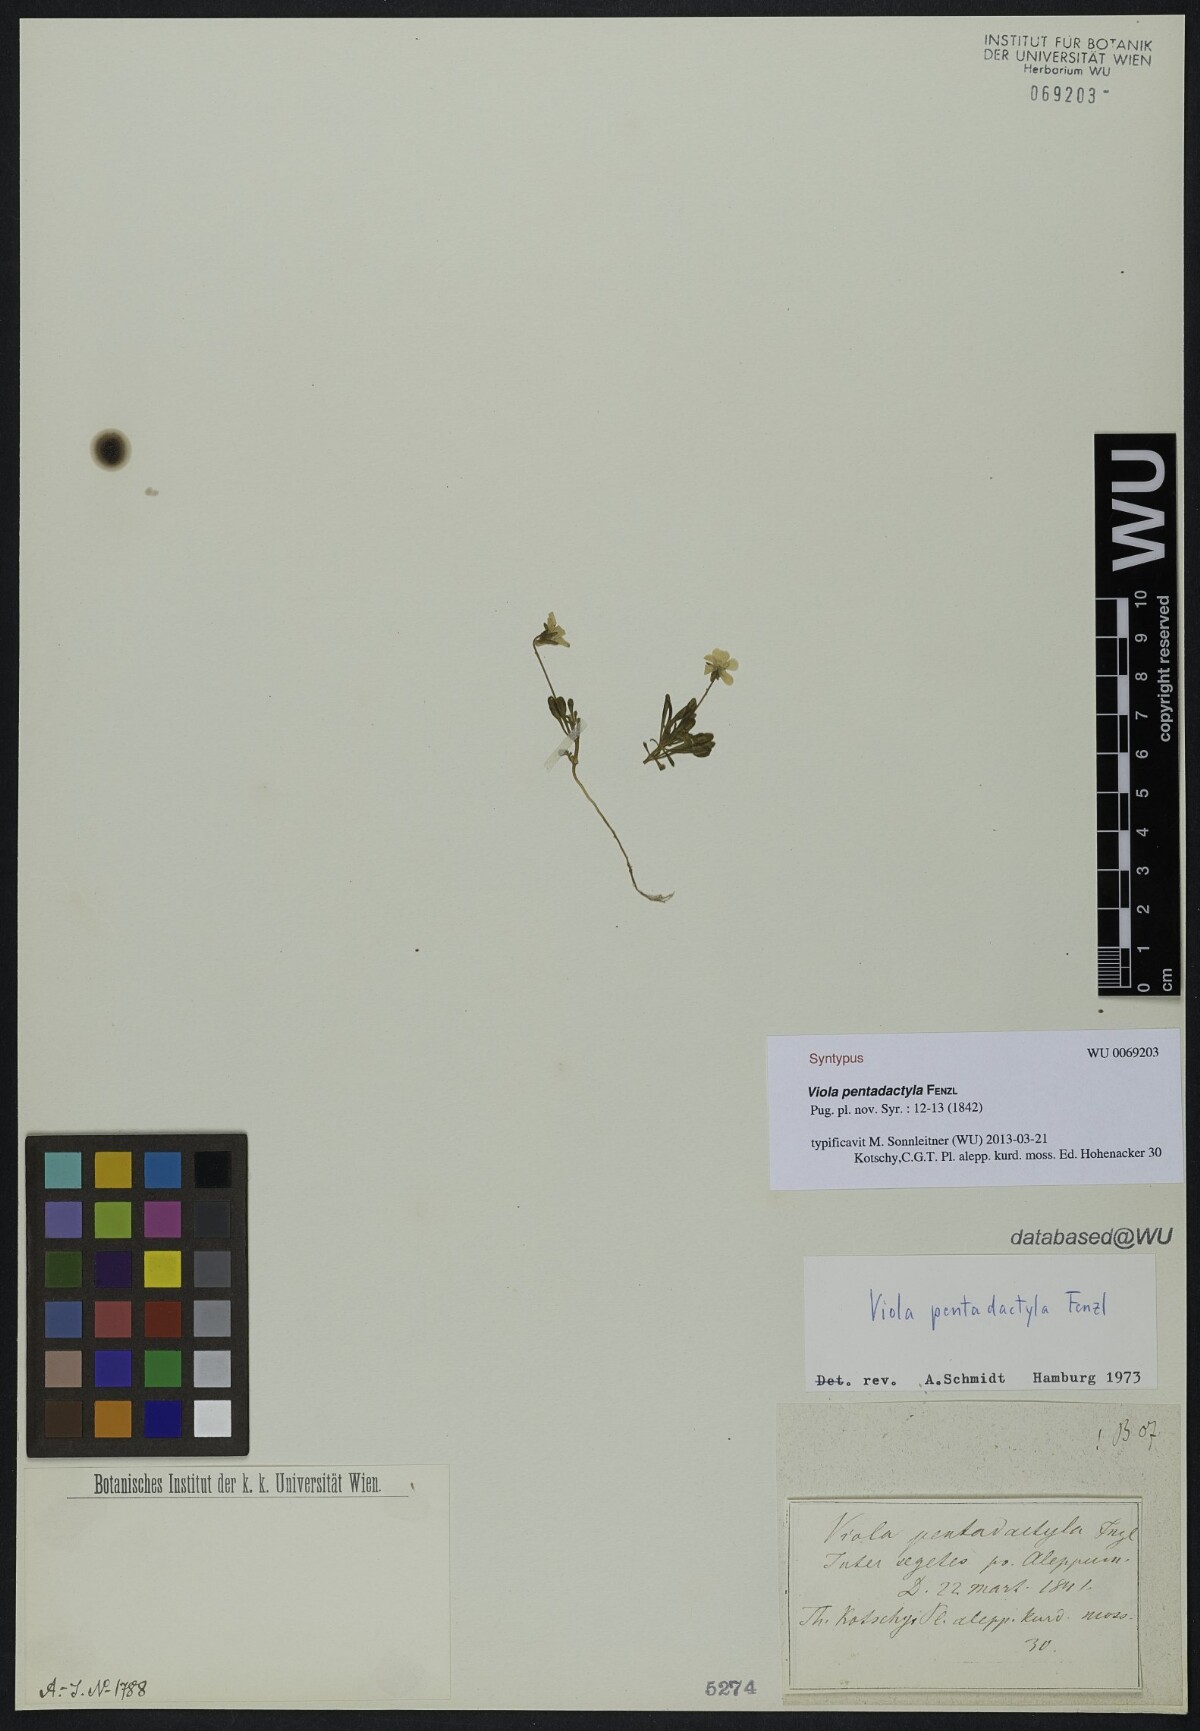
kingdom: Plantae
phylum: Tracheophyta
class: Magnoliopsida
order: Malpighiales
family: Violaceae
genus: Viola
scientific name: Viola pentadactyla
